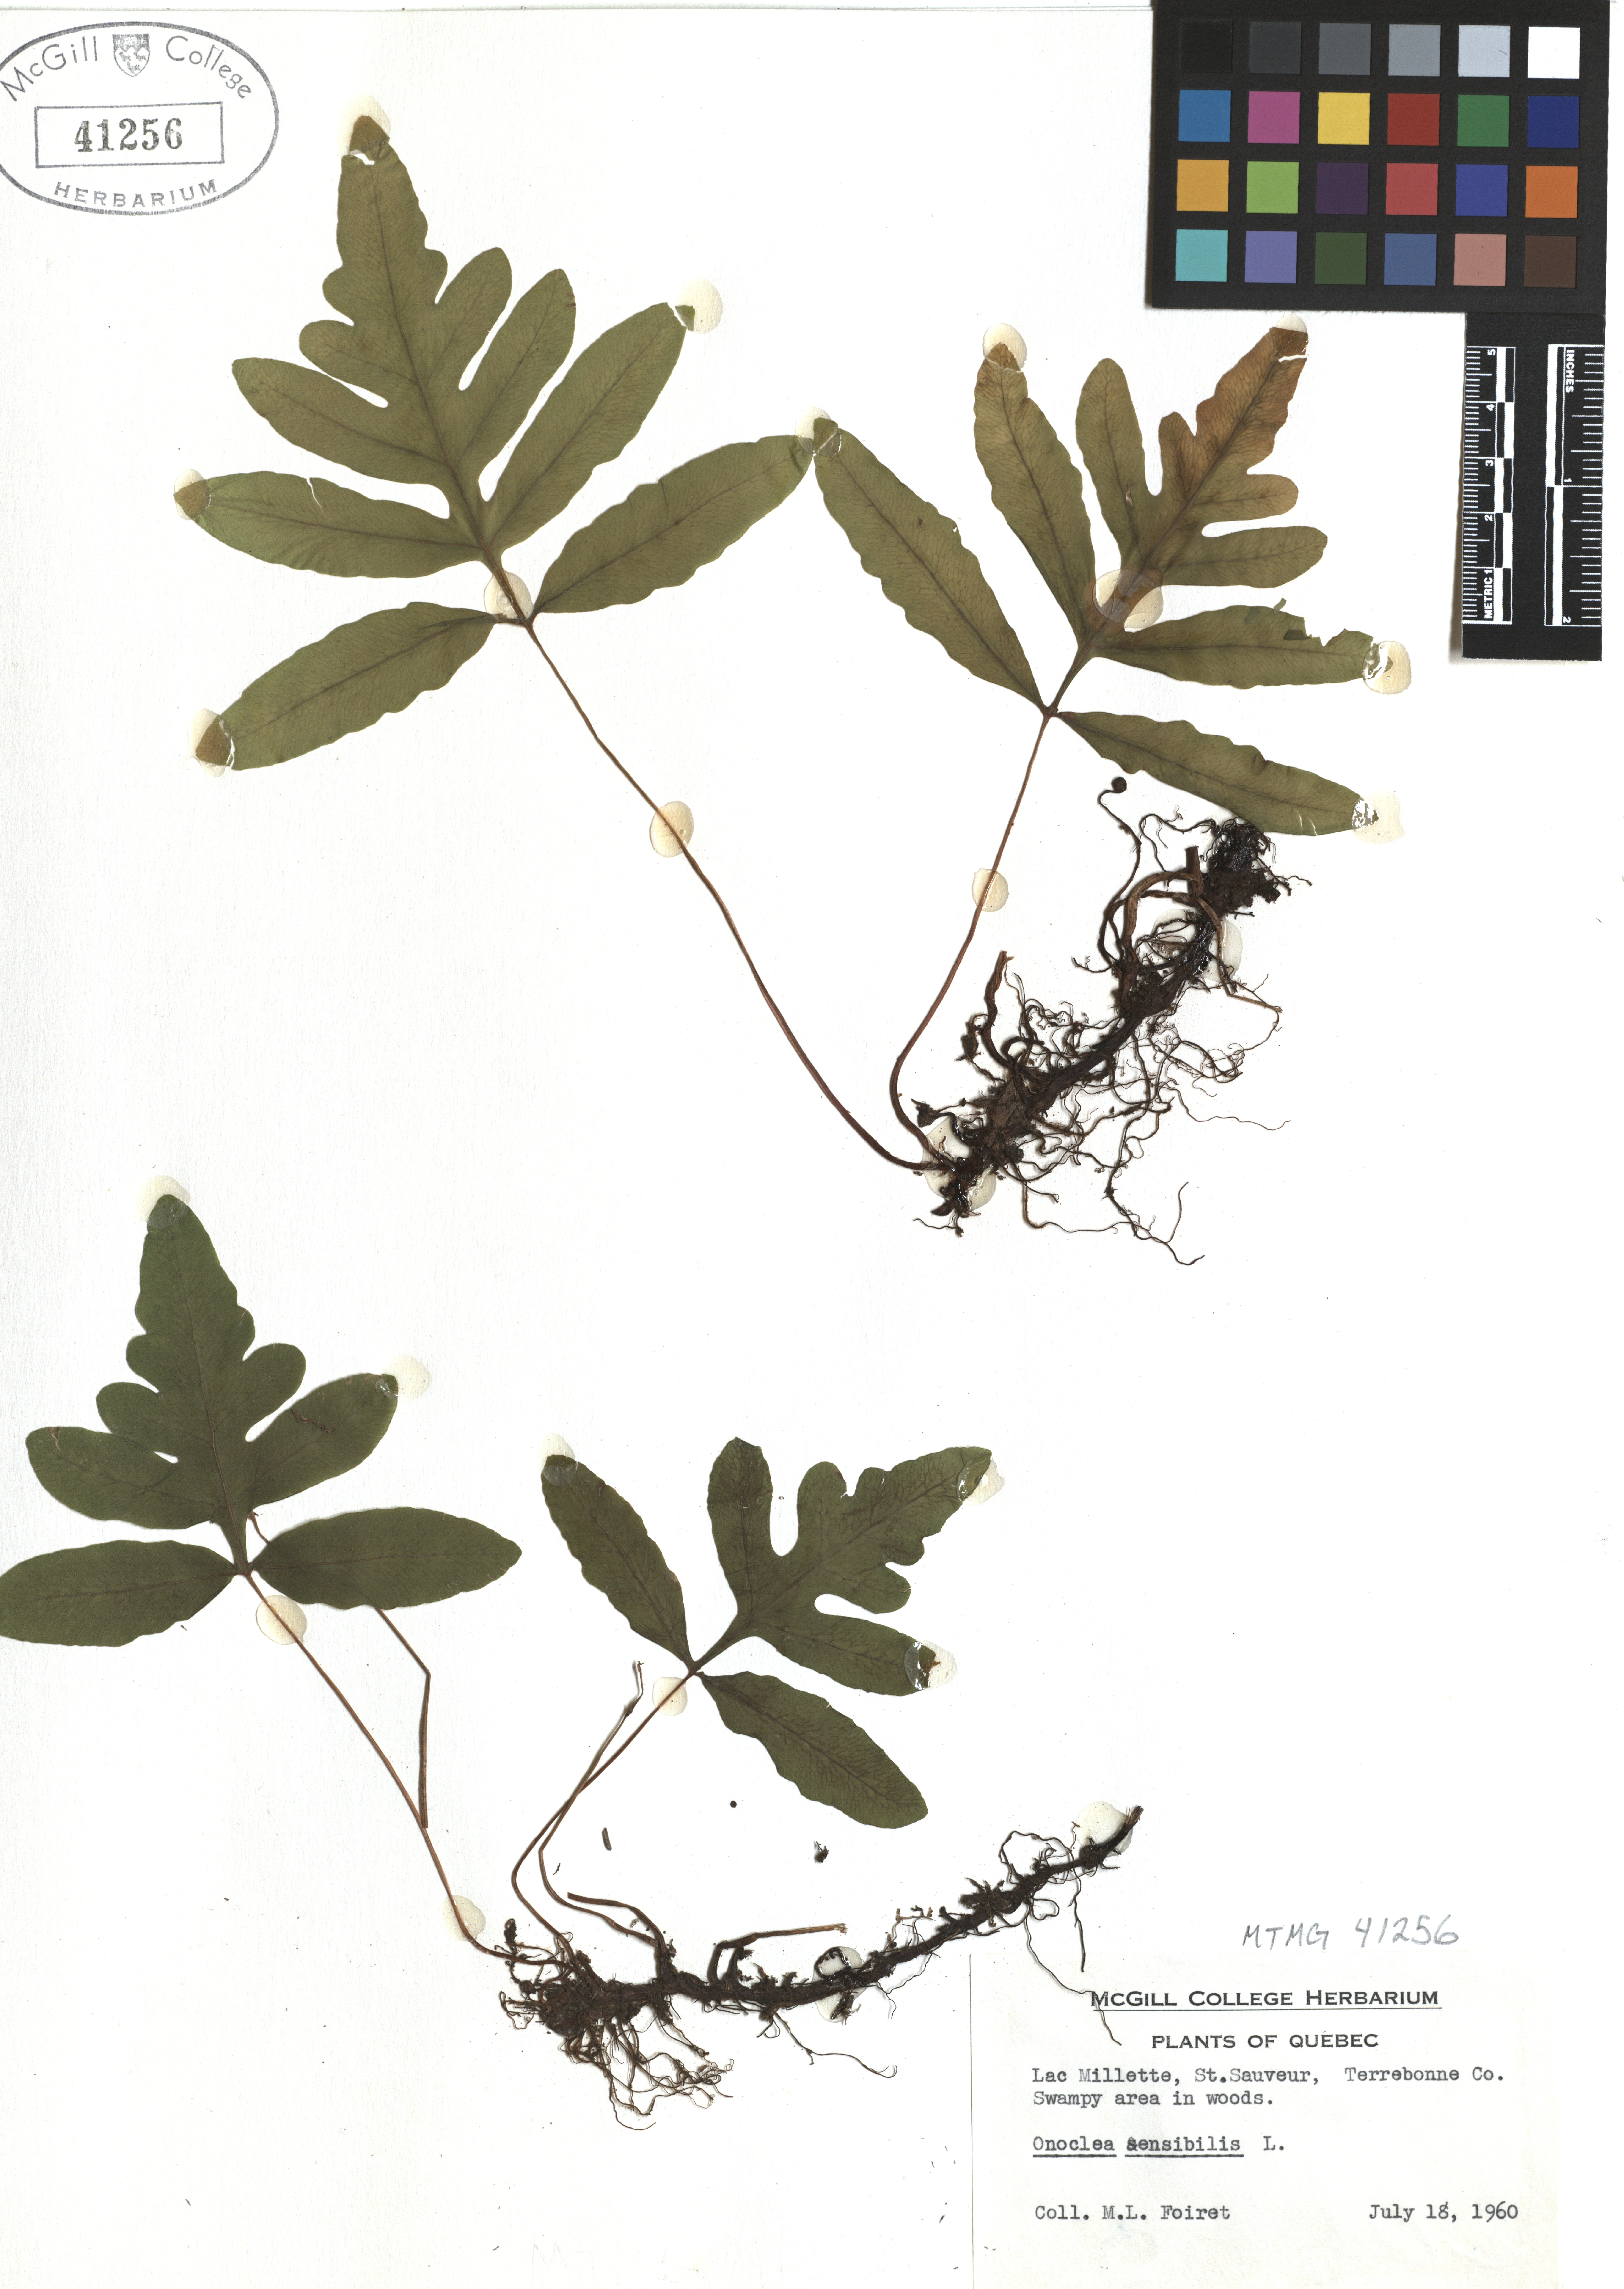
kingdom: Plantae
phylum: Tracheophyta
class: Polypodiopsida
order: Polypodiales
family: Onocleaceae
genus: Onoclea
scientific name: Onoclea sensibilis
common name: Sensitive fern
